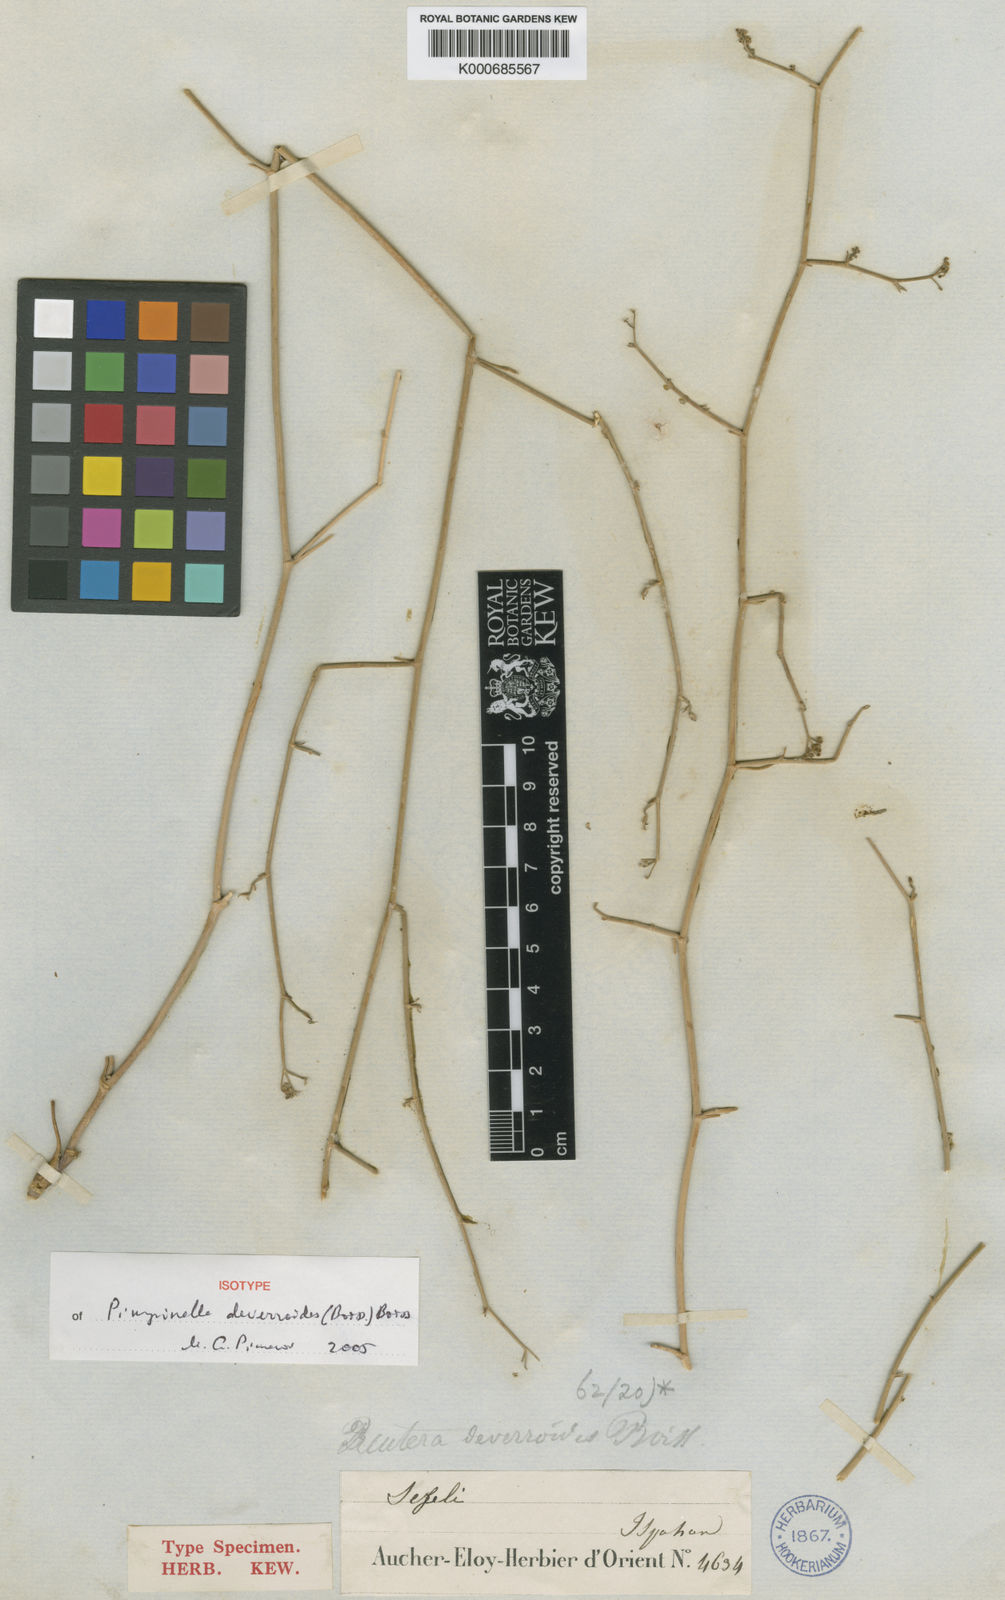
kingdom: Plantae
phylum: Tracheophyta
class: Magnoliopsida
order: Apiales
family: Apiaceae
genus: Pimpinella
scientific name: Pimpinella deverroides
